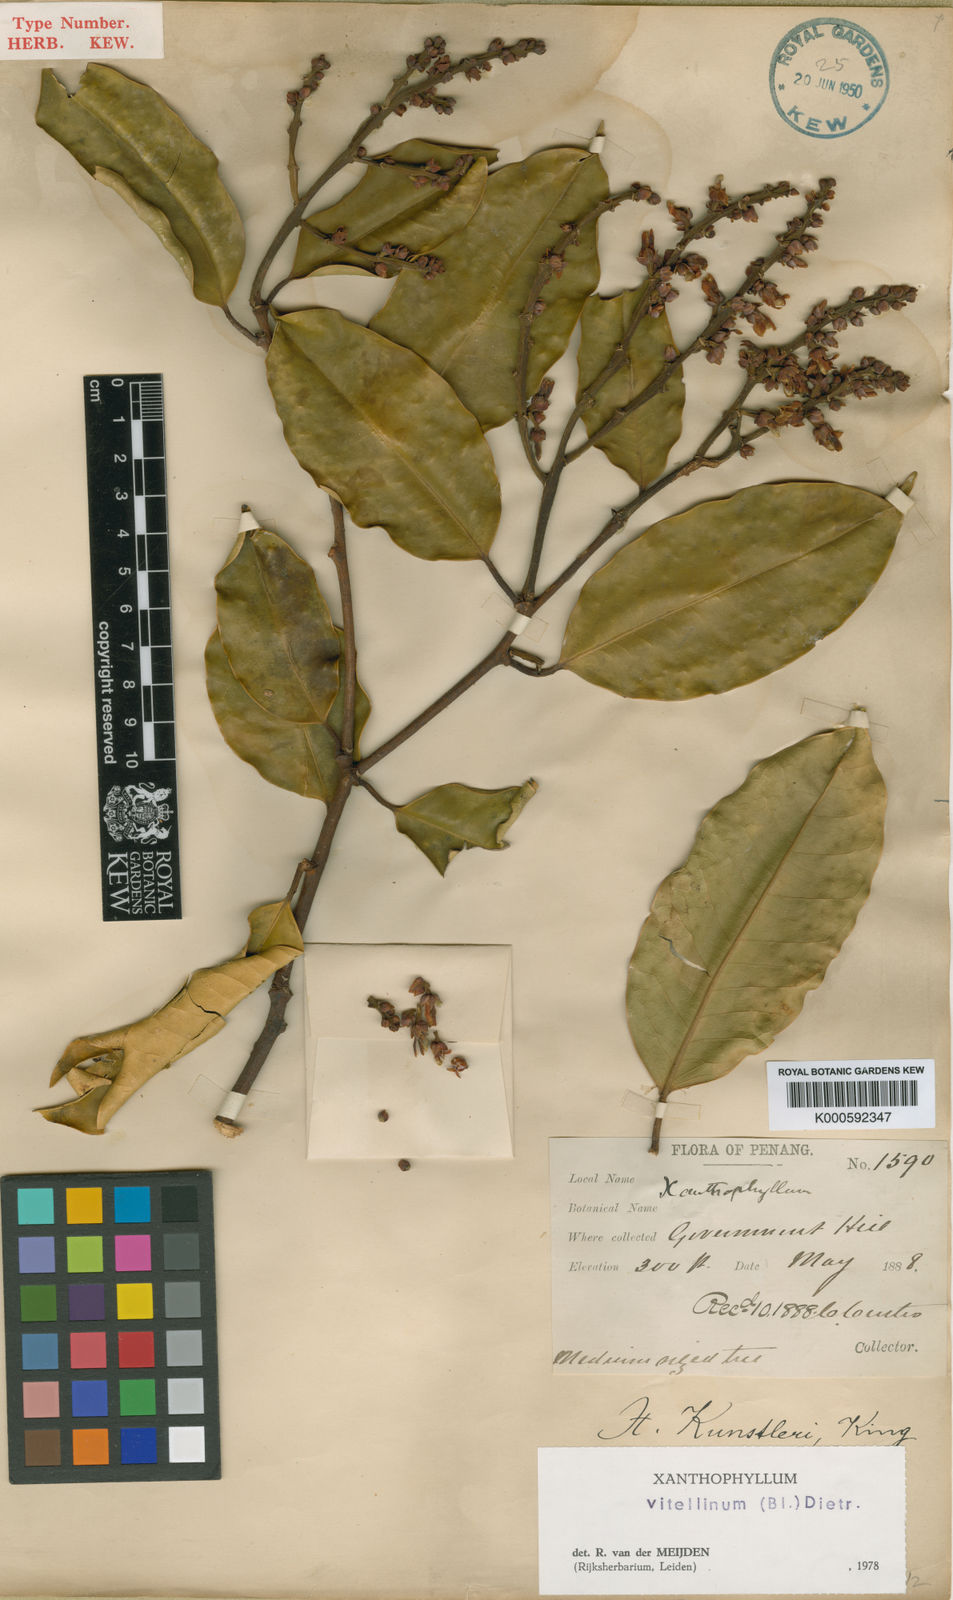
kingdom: Plantae
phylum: Tracheophyta
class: Magnoliopsida
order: Fabales
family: Polygalaceae
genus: Xanthophyllum
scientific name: Xanthophyllum vitellinum
